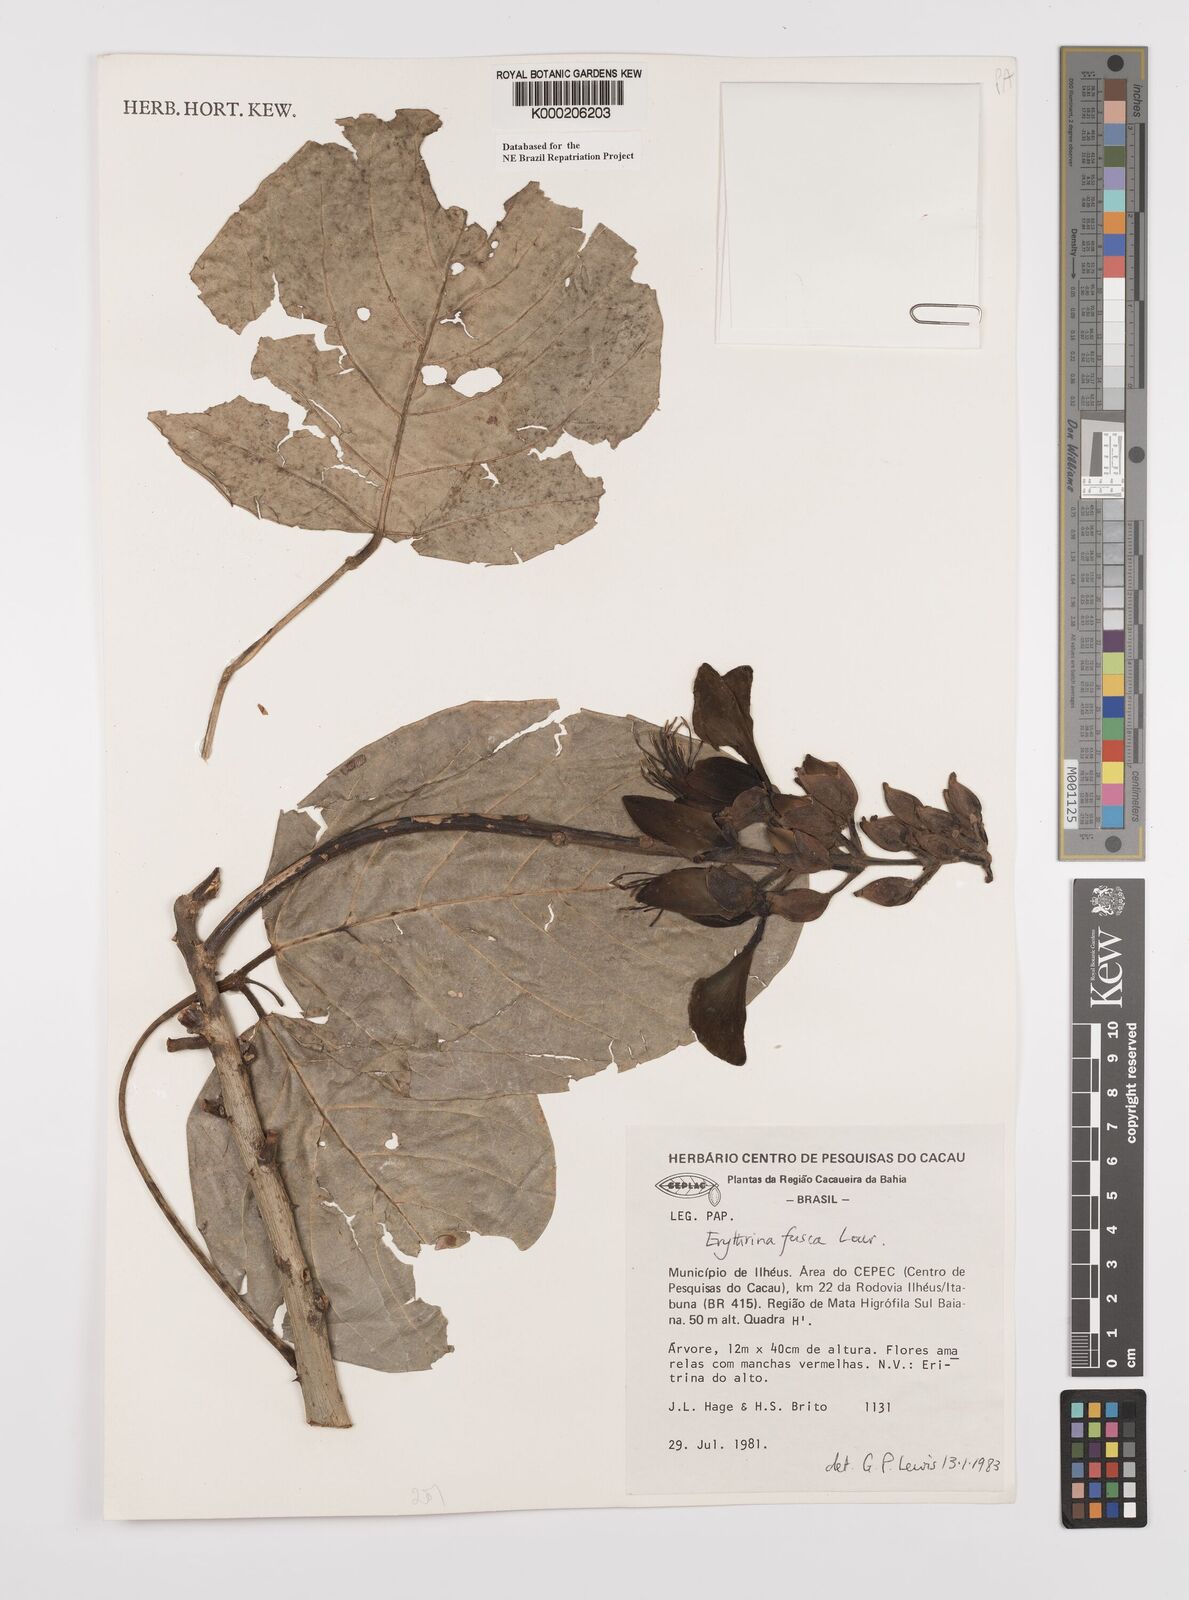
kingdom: Plantae
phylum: Tracheophyta
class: Magnoliopsida
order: Fabales
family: Fabaceae
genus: Erythrina
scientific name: Erythrina fusca
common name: Coral-bean
